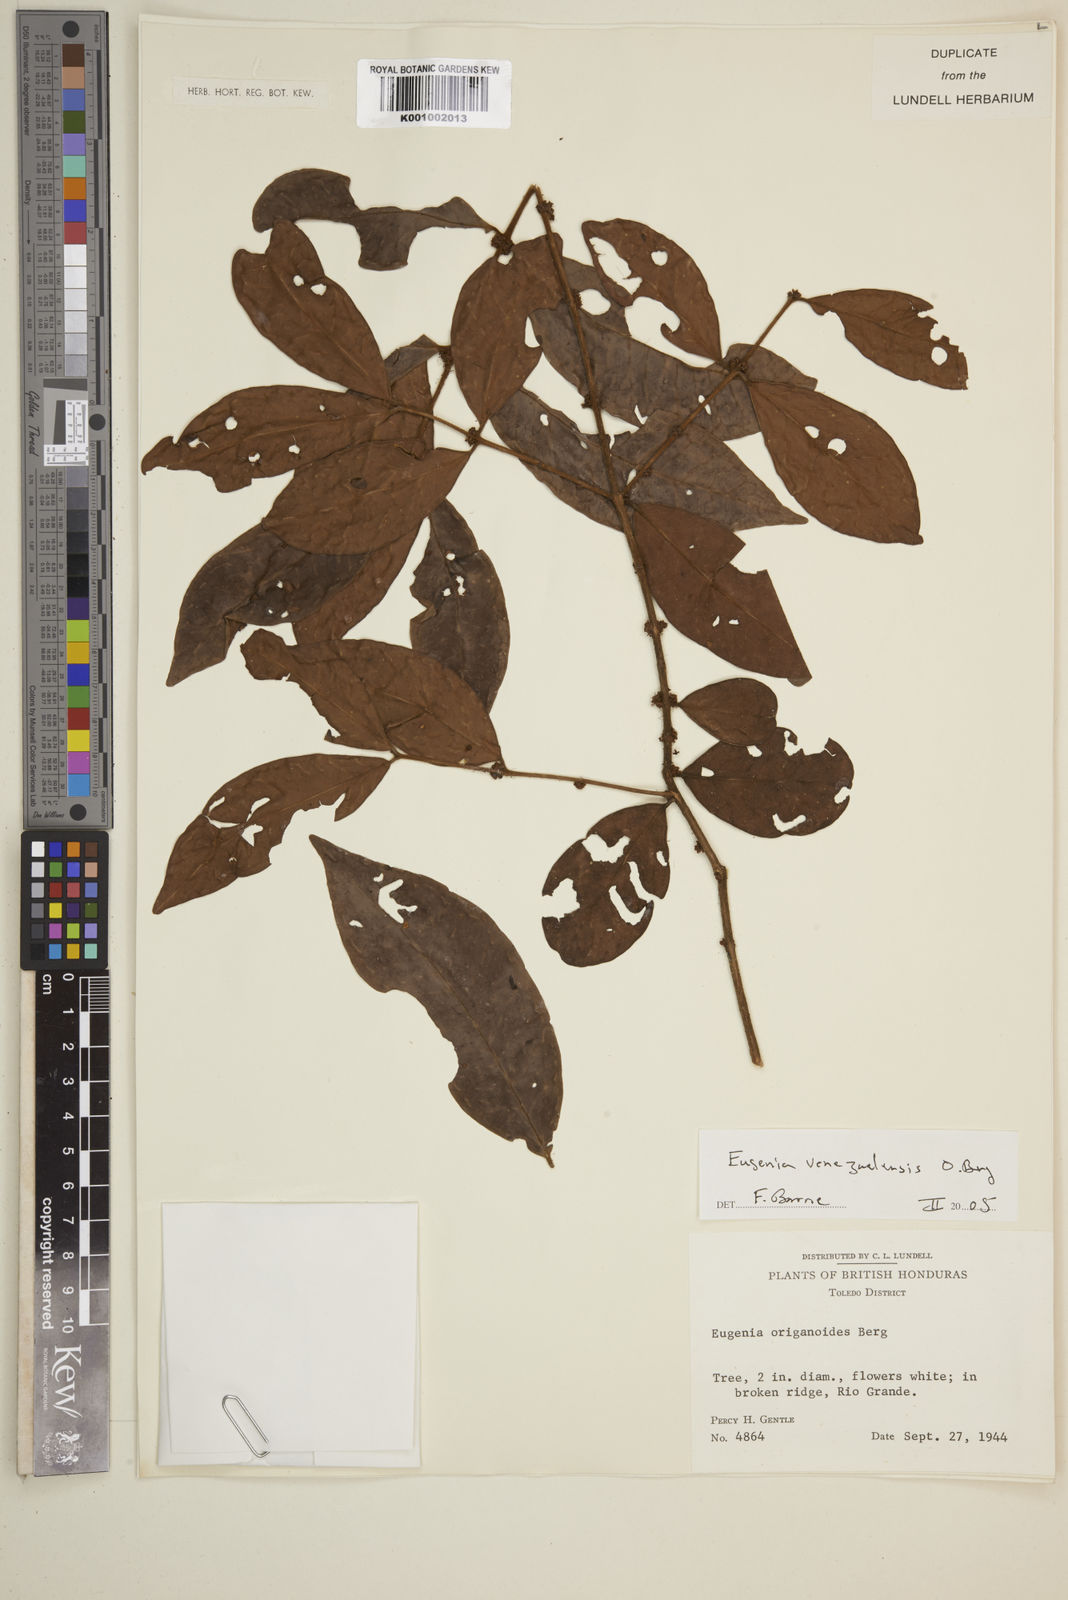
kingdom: Plantae
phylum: Tracheophyta
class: Magnoliopsida
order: Myrtales
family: Myrtaceae
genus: Eugenia
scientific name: Eugenia venezuelensis
